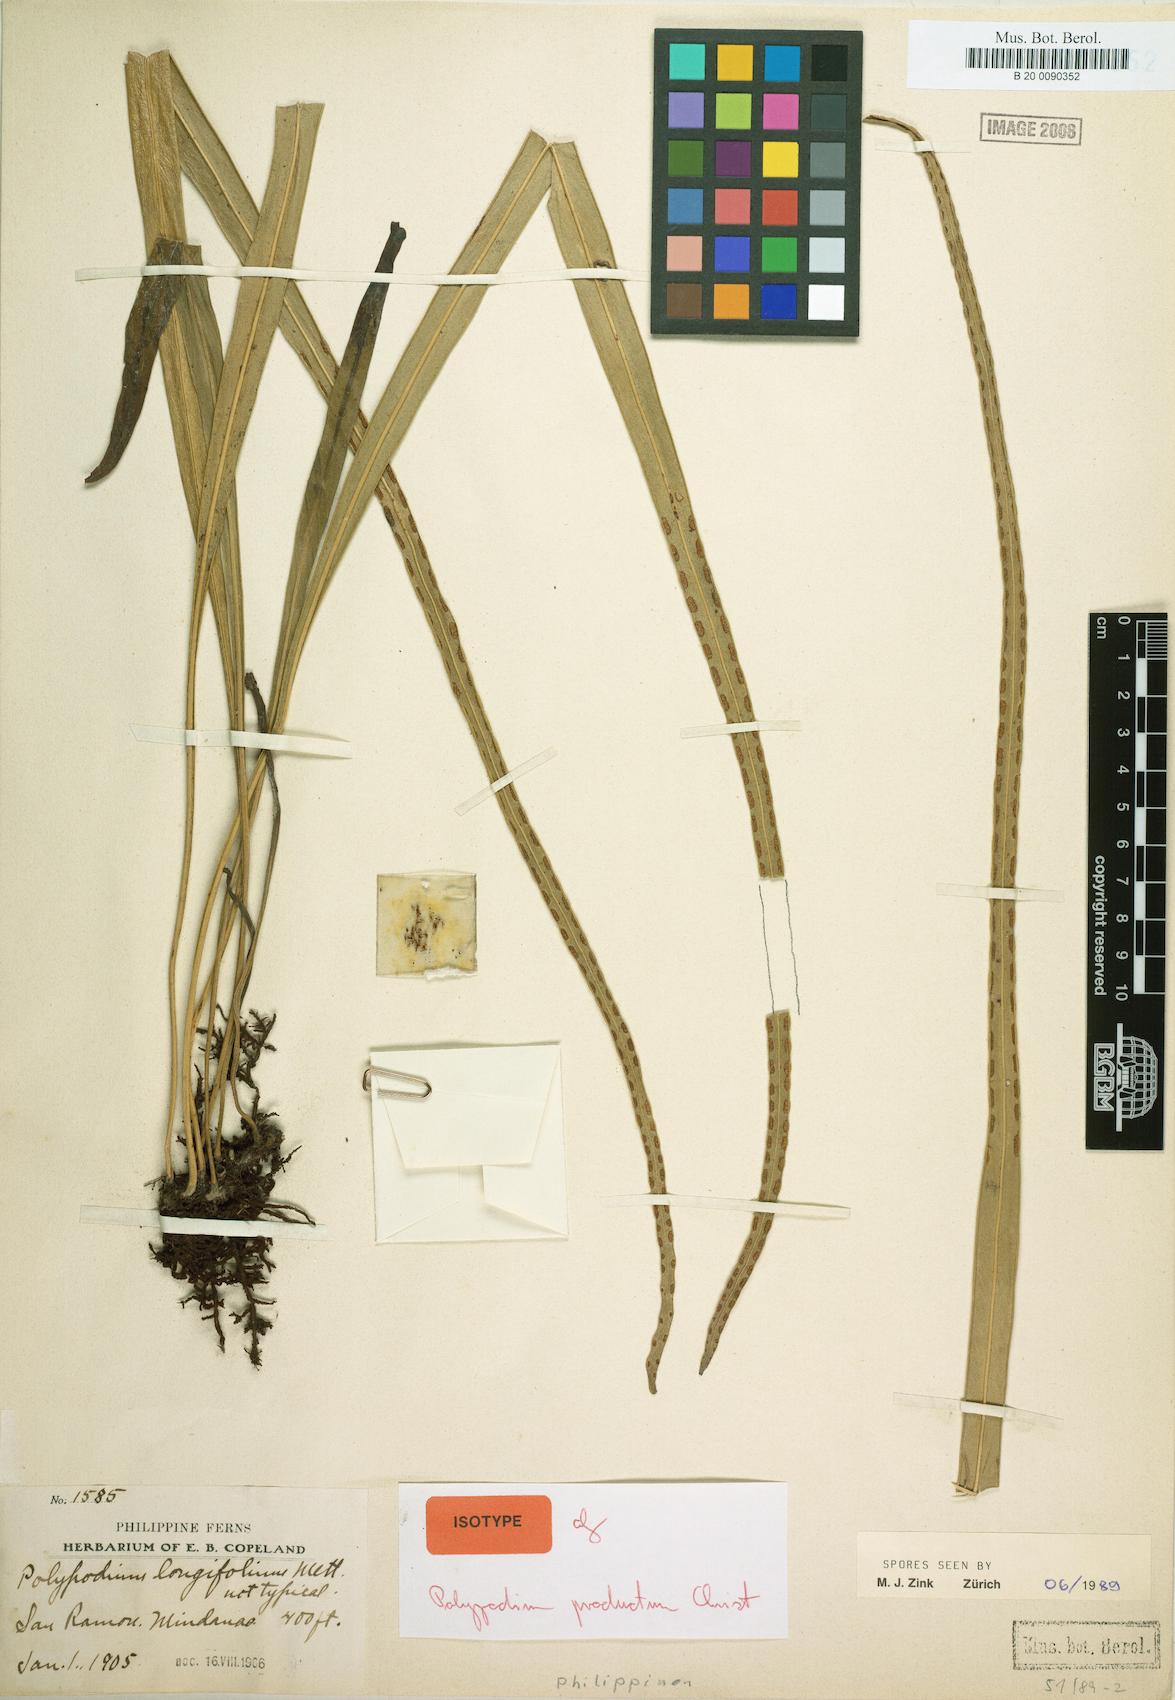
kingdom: Plantae
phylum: Tracheophyta
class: Polypodiopsida
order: Polypodiales
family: Polypodiaceae
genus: Lepisorus
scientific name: Lepisorus longifolius
